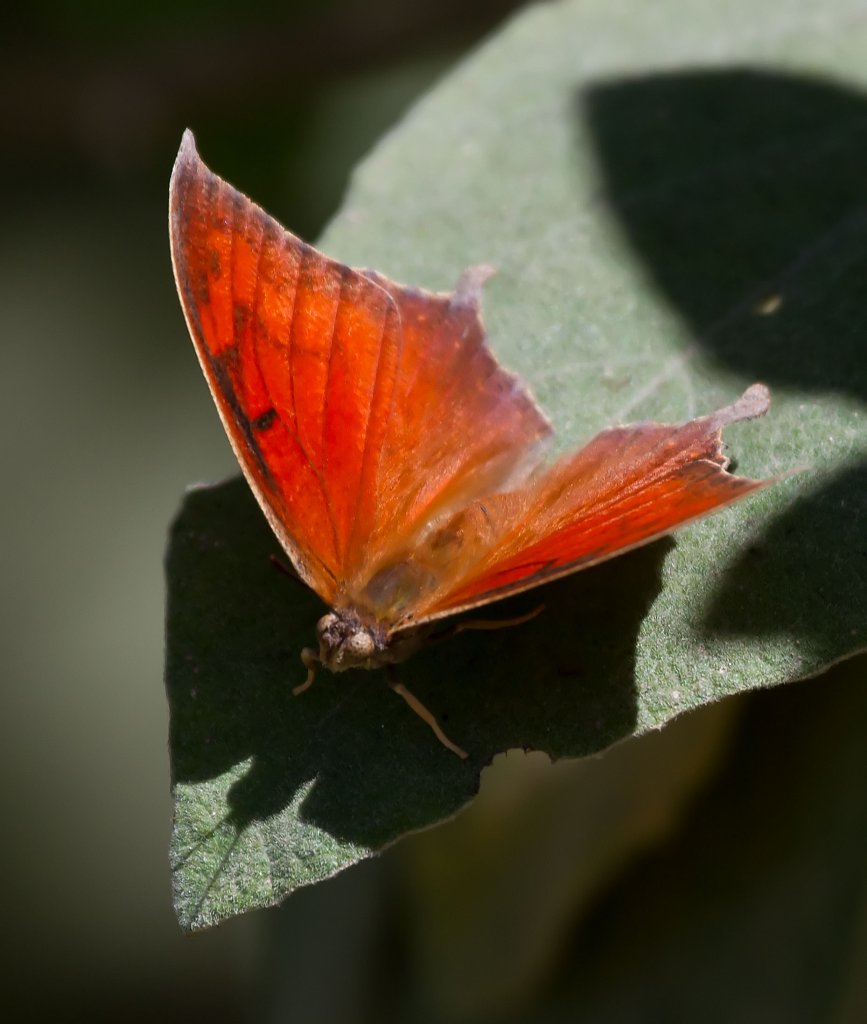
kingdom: Animalia
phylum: Arthropoda
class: Insecta
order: Lepidoptera
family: Nymphalidae
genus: Anaea
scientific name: Anaea andria
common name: Goatweed Leafwing
